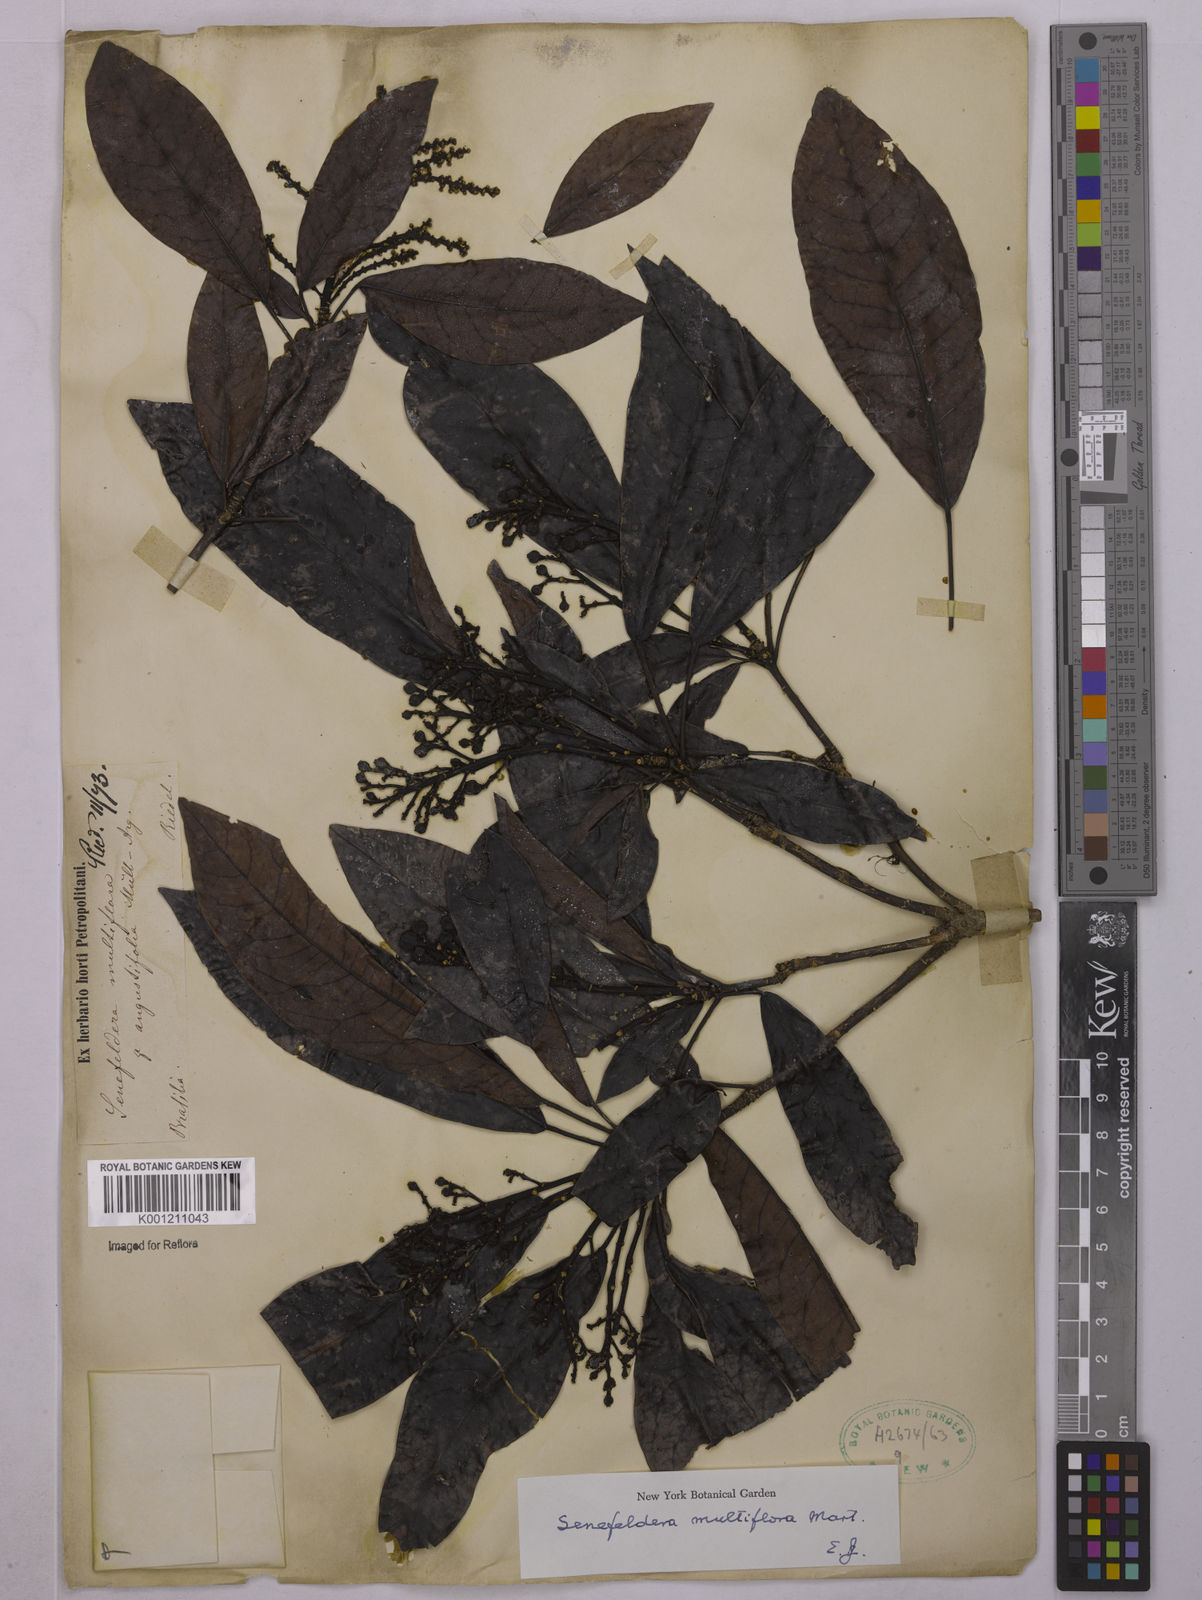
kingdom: Plantae
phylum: Tracheophyta
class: Magnoliopsida
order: Malpighiales
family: Euphorbiaceae
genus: Senefeldera
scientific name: Senefeldera verticillata
